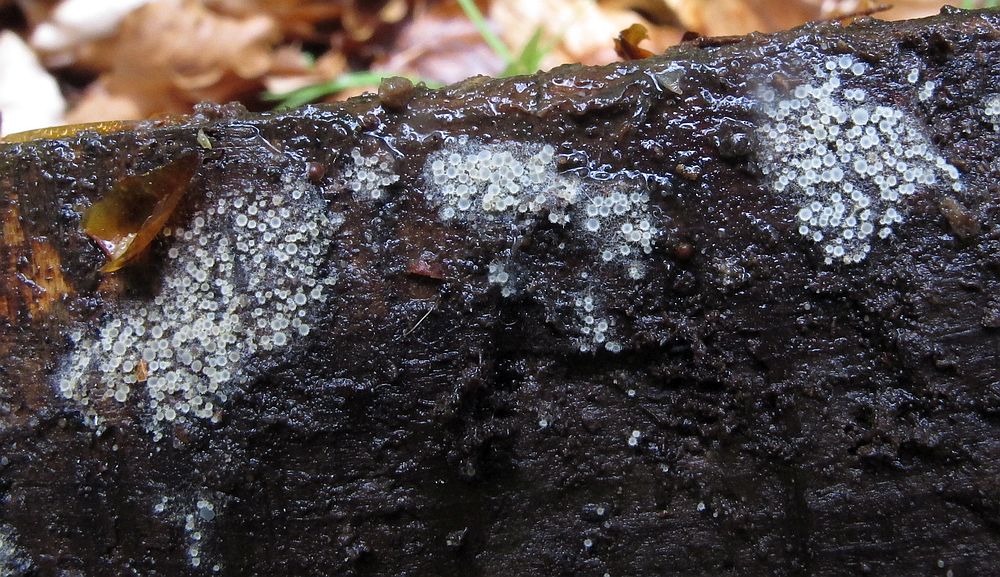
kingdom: Fungi
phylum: Ascomycota
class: Leotiomycetes
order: Helotiales
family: Arachnopezizaceae
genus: Arachnopeziza
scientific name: Arachnopeziza aurata
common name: bleggul spindskive
